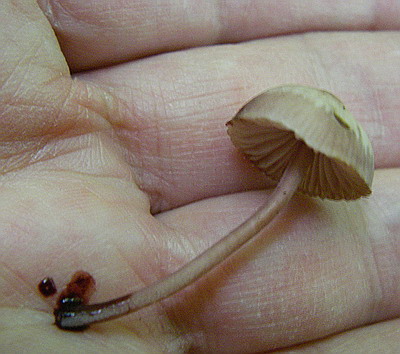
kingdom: Fungi
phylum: Basidiomycota
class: Agaricomycetes
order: Agaricales
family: Mycenaceae
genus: Mycena
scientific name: Mycena haematopus
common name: blødende huesvamp
